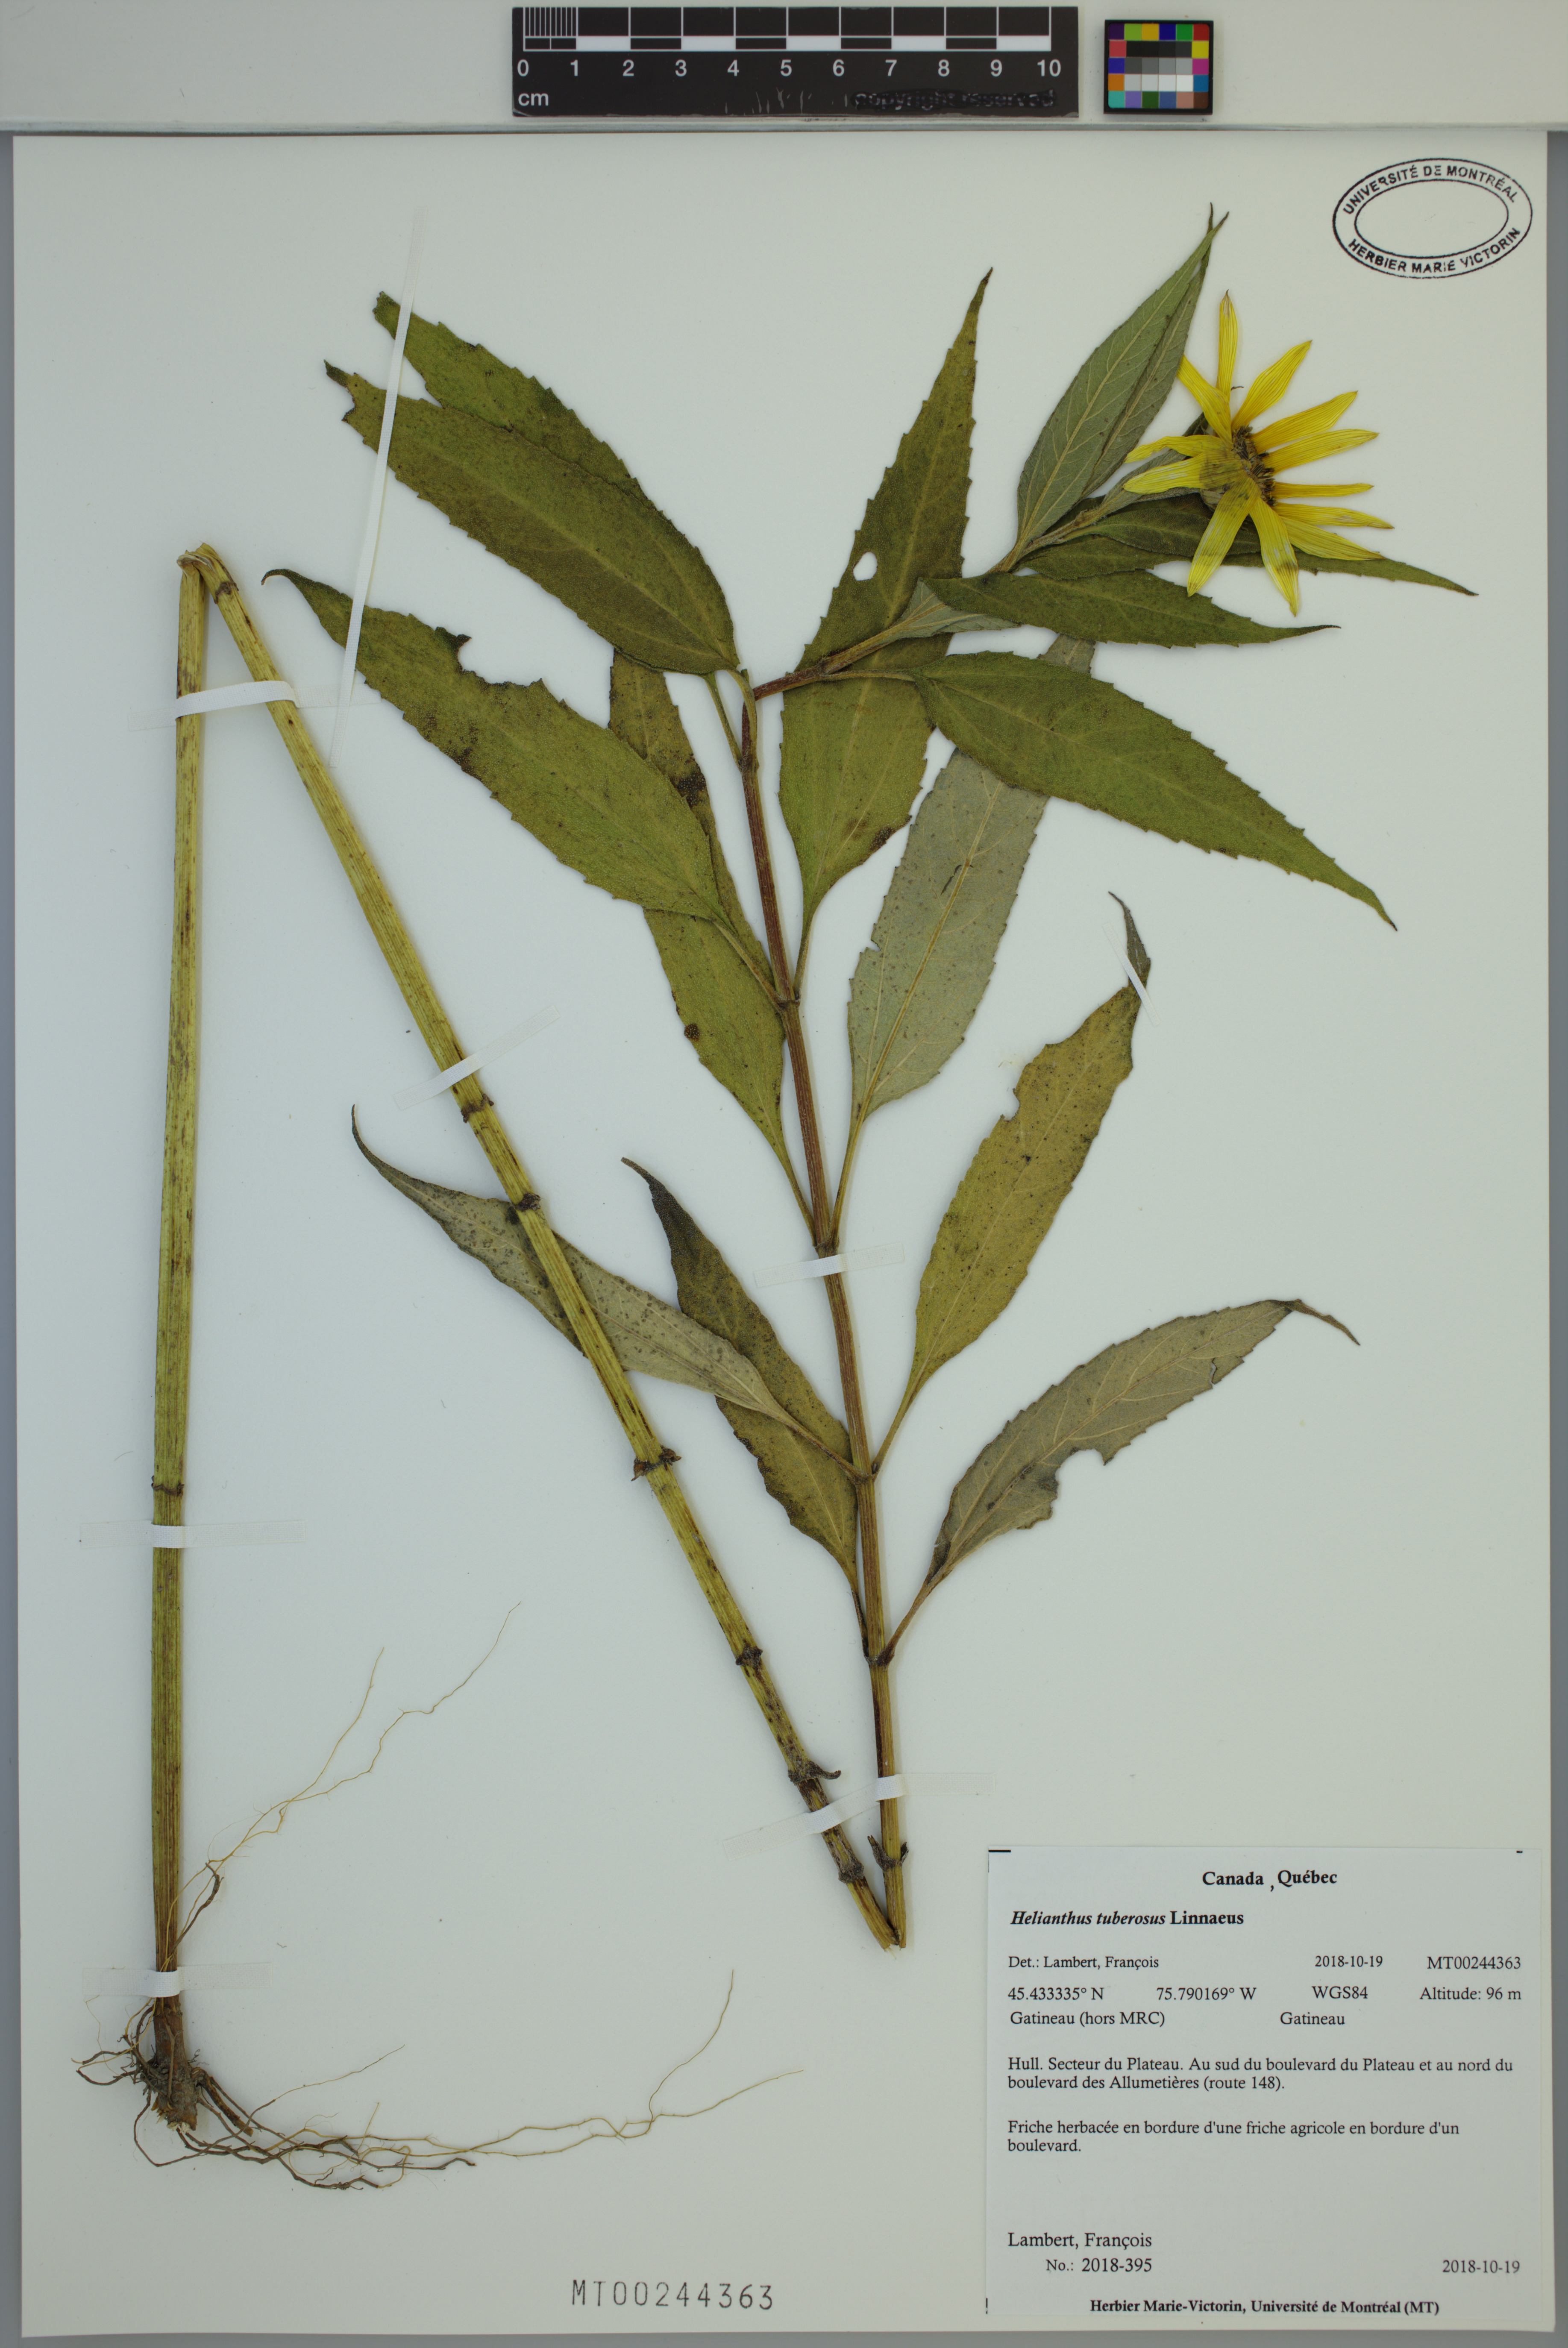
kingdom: Plantae
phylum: Tracheophyta
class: Magnoliopsida
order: Asterales
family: Asteraceae
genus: Helianthus
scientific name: Helianthus tuberosus
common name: Jerusalem artichoke
